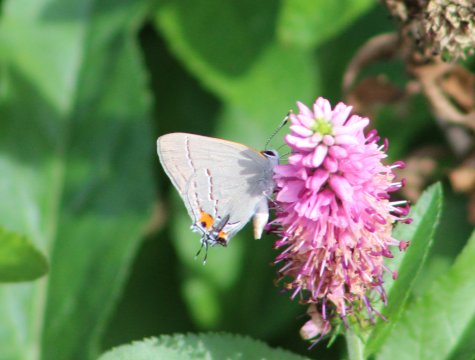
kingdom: Animalia
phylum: Arthropoda
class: Insecta
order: Lepidoptera
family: Lycaenidae
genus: Strymon
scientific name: Strymon melinus
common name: Gray Hairstreak
